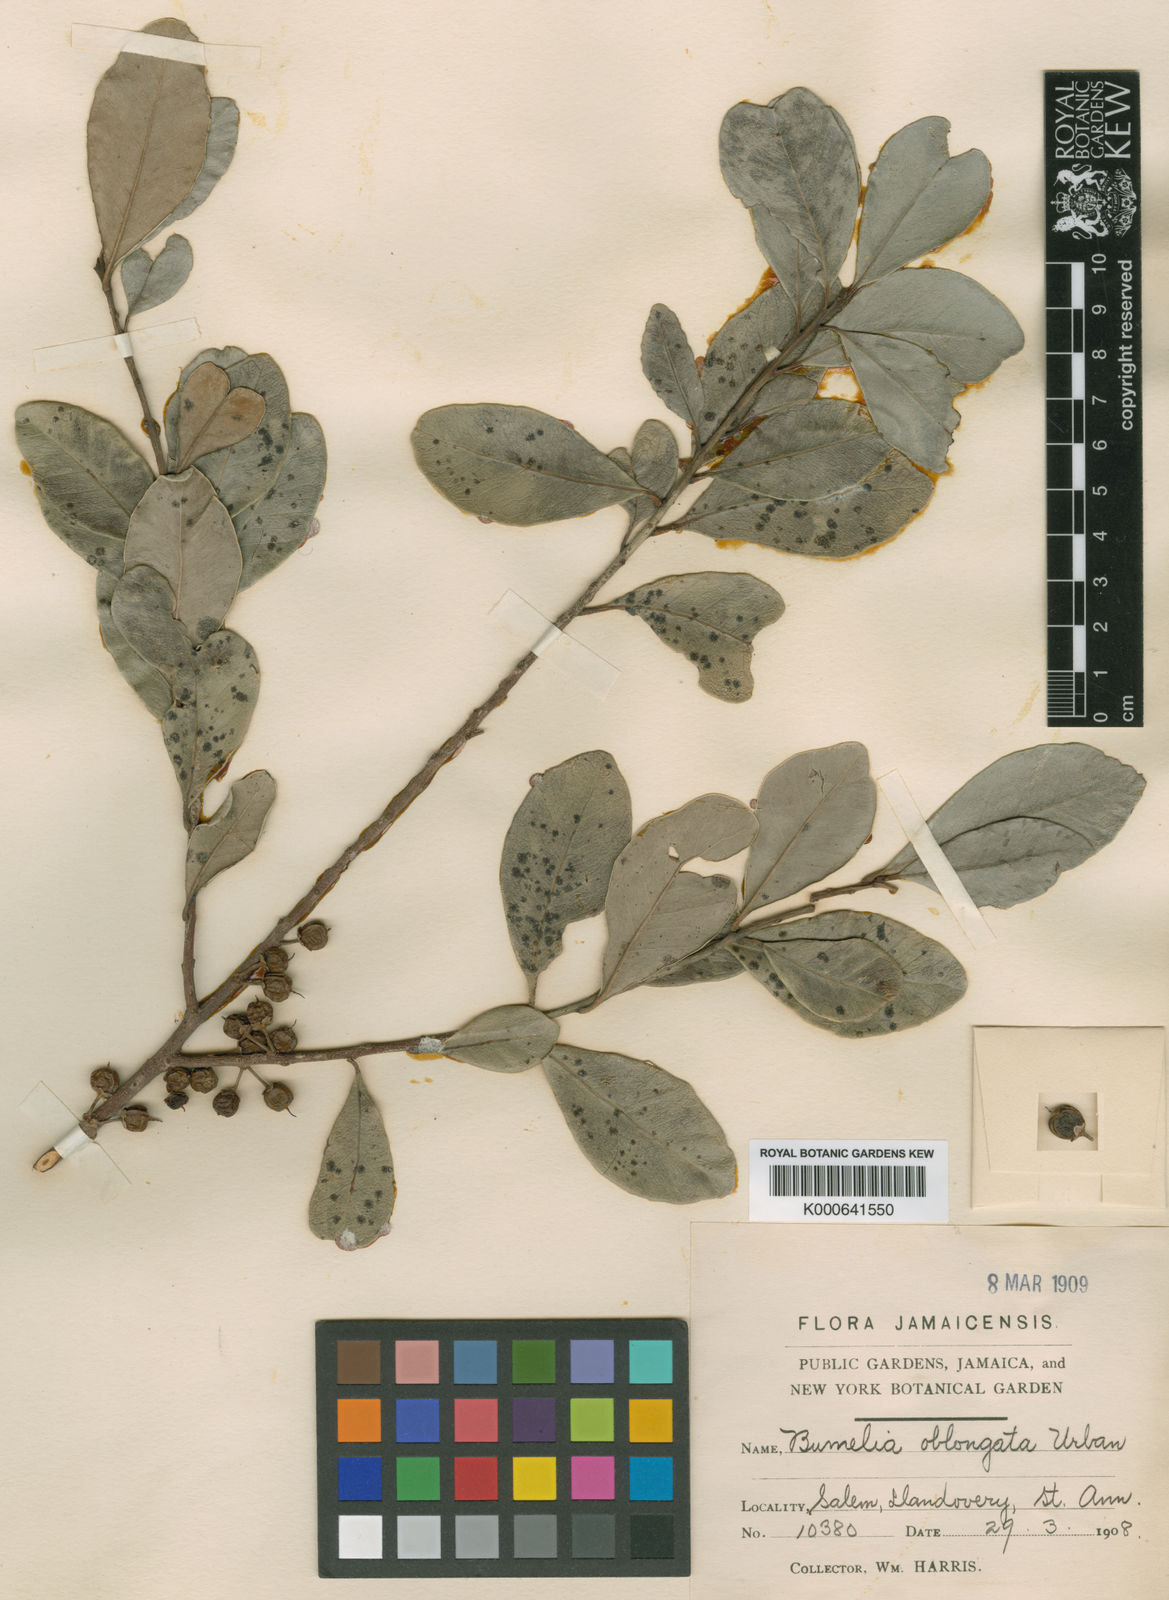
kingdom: Plantae
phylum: Tracheophyta
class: Magnoliopsida
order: Ericales
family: Sapotaceae
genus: Sideroxylon
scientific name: Sideroxylon americanum
